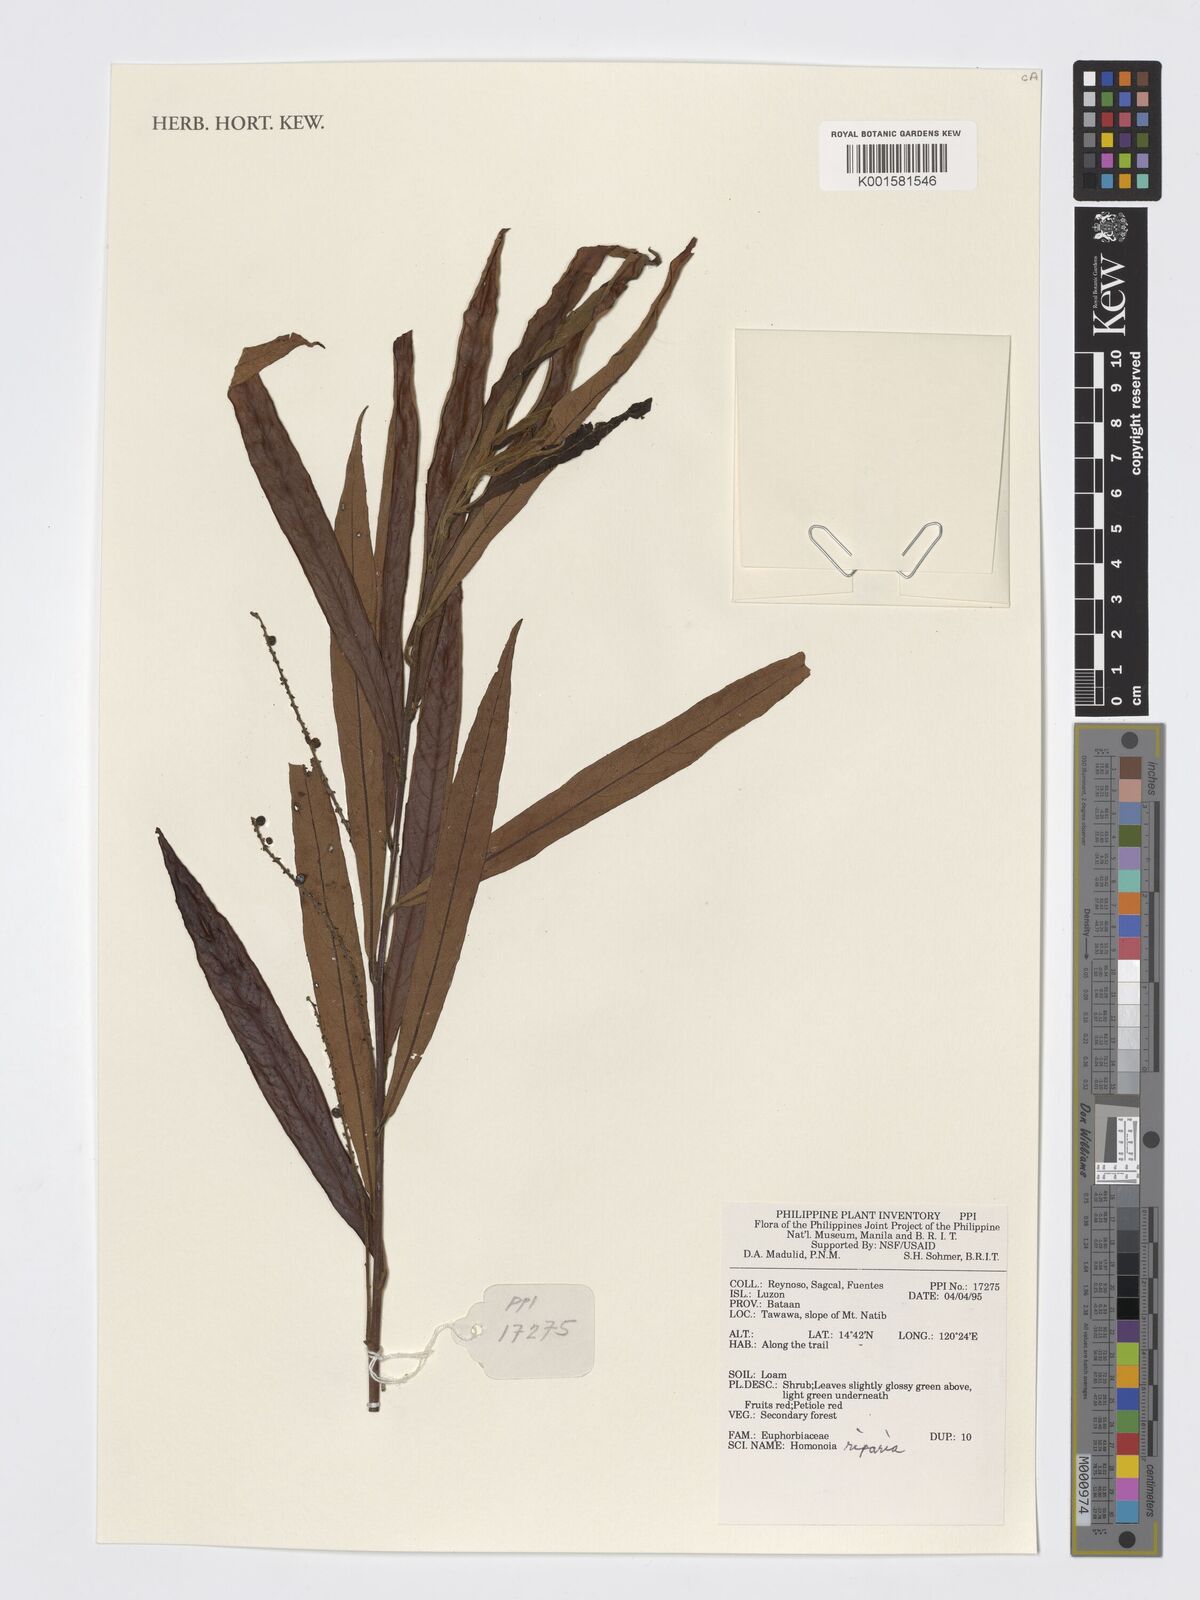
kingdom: Plantae
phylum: Tracheophyta
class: Magnoliopsida
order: Malpighiales
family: Euphorbiaceae
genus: Homonoia
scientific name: Homonoia riparia
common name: Willow-leaved water croton
